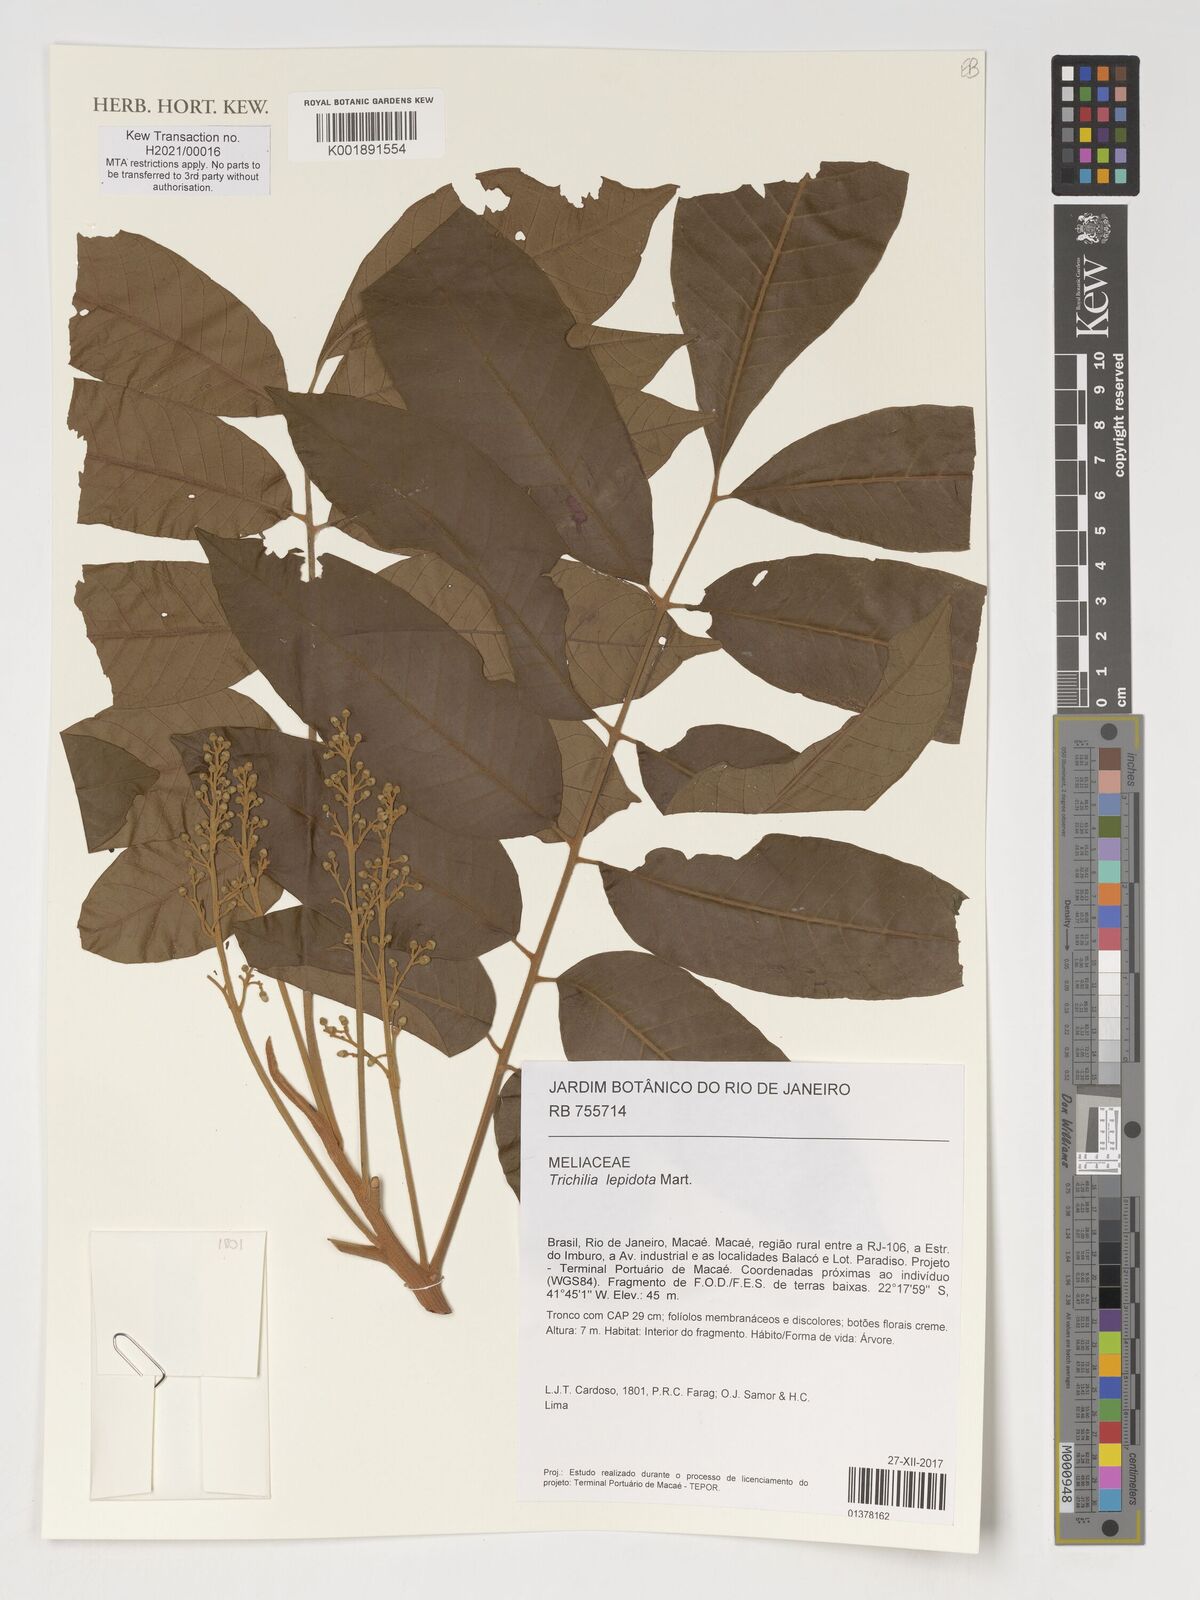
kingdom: Plantae
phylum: Tracheophyta
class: Magnoliopsida
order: Sapindales
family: Meliaceae
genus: Trichilia
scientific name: Trichilia lepidota
